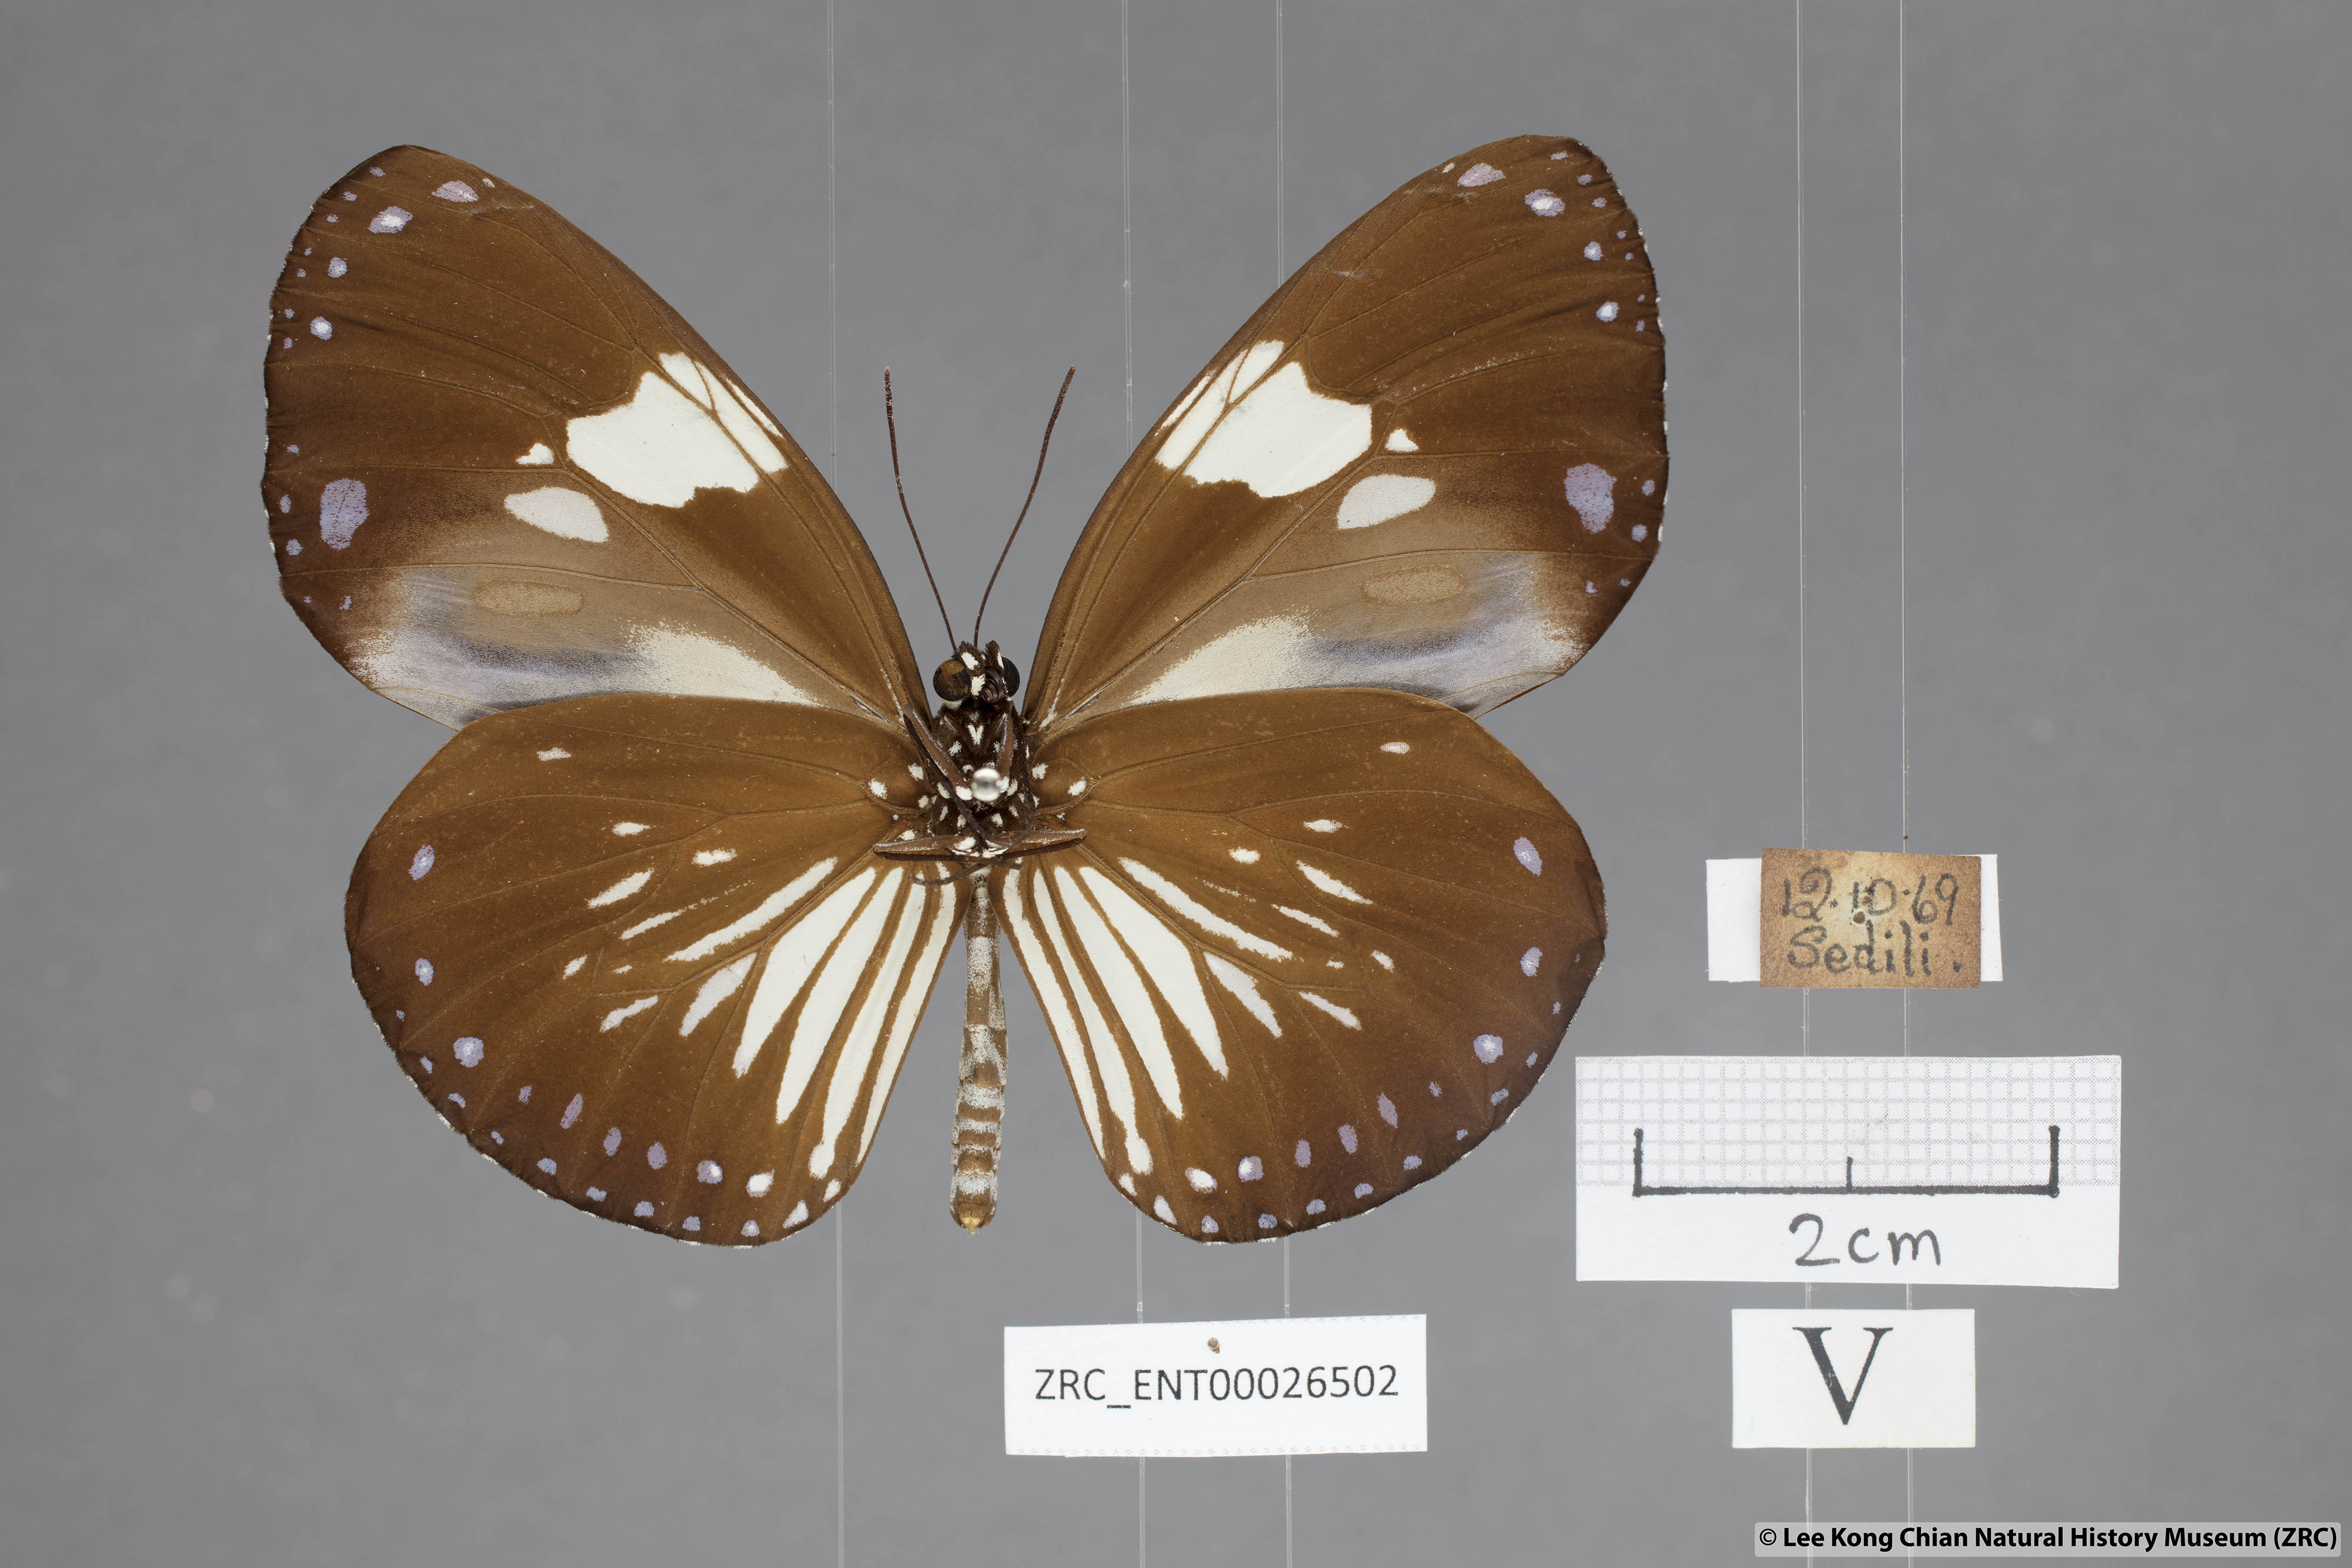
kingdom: Animalia
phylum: Arthropoda
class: Insecta
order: Lepidoptera
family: Nymphalidae
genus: Euploea
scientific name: Euploea radamanthus
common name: Magpie crow butterfly
